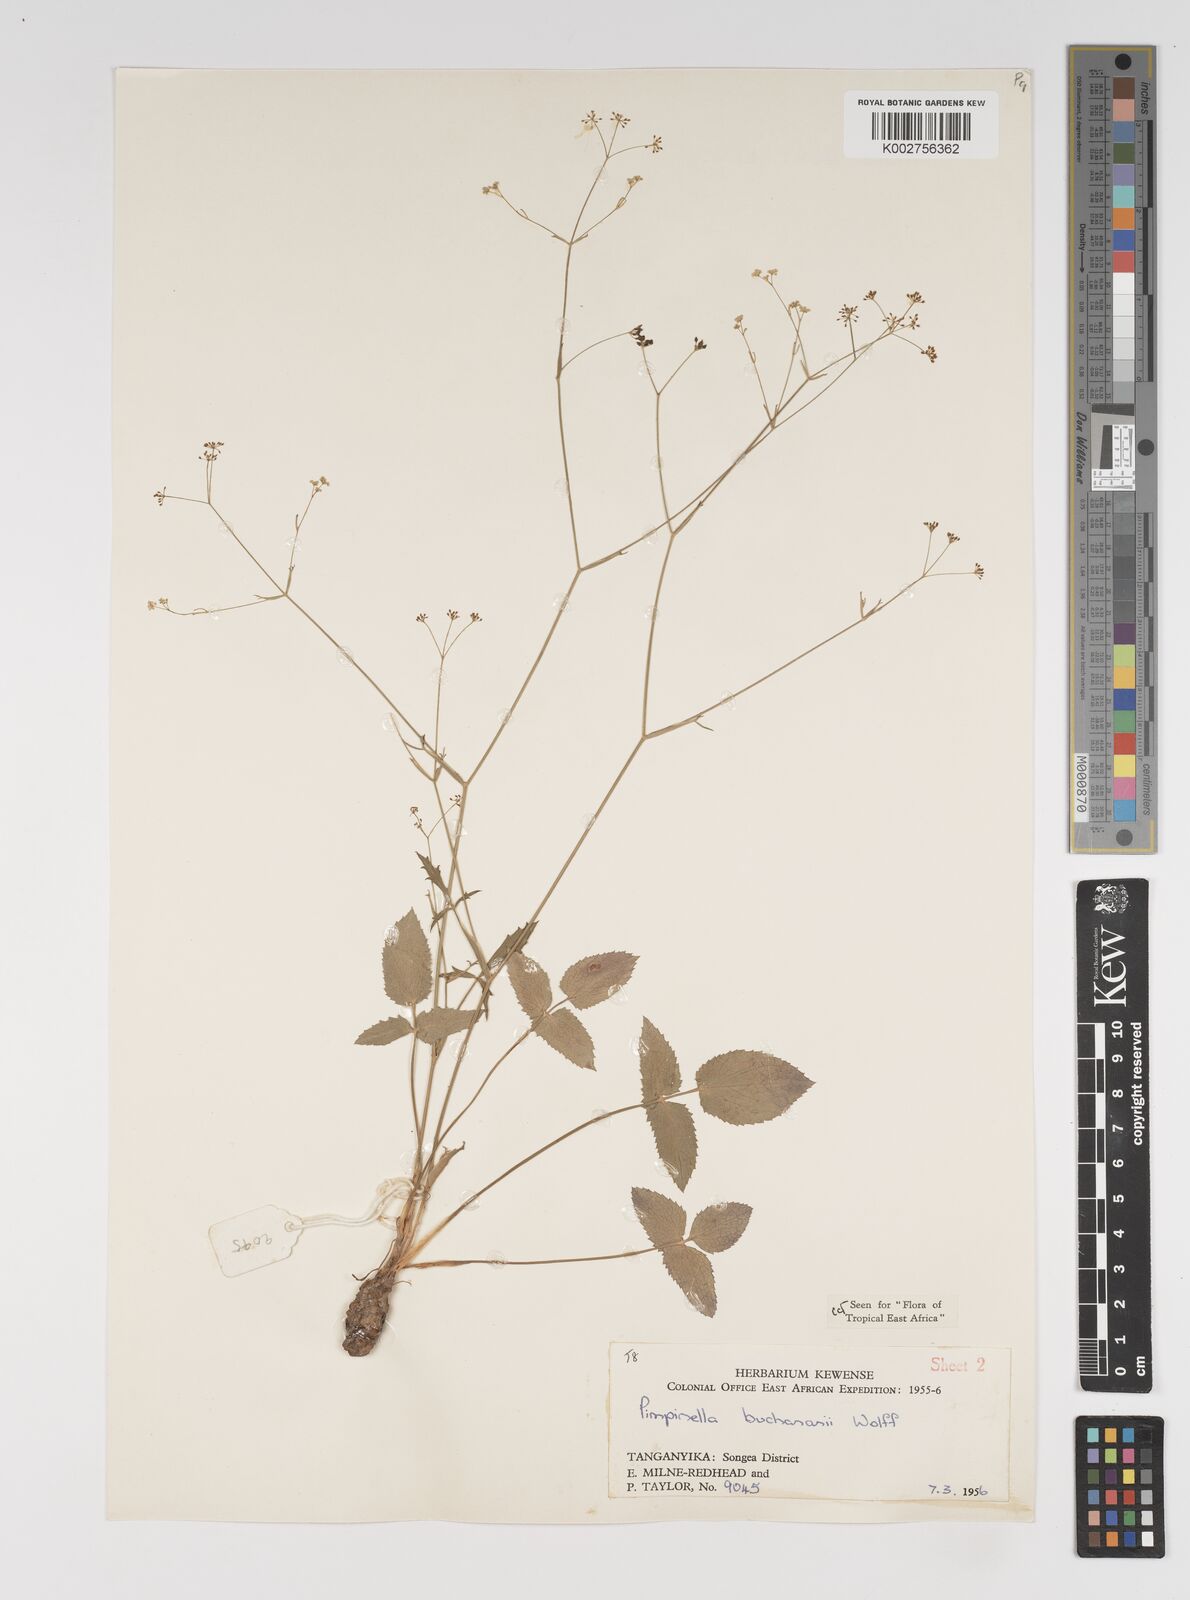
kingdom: Plantae
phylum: Tracheophyta
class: Magnoliopsida
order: Apiales
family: Apiaceae
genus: Pimpinella
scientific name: Pimpinella buchananii
